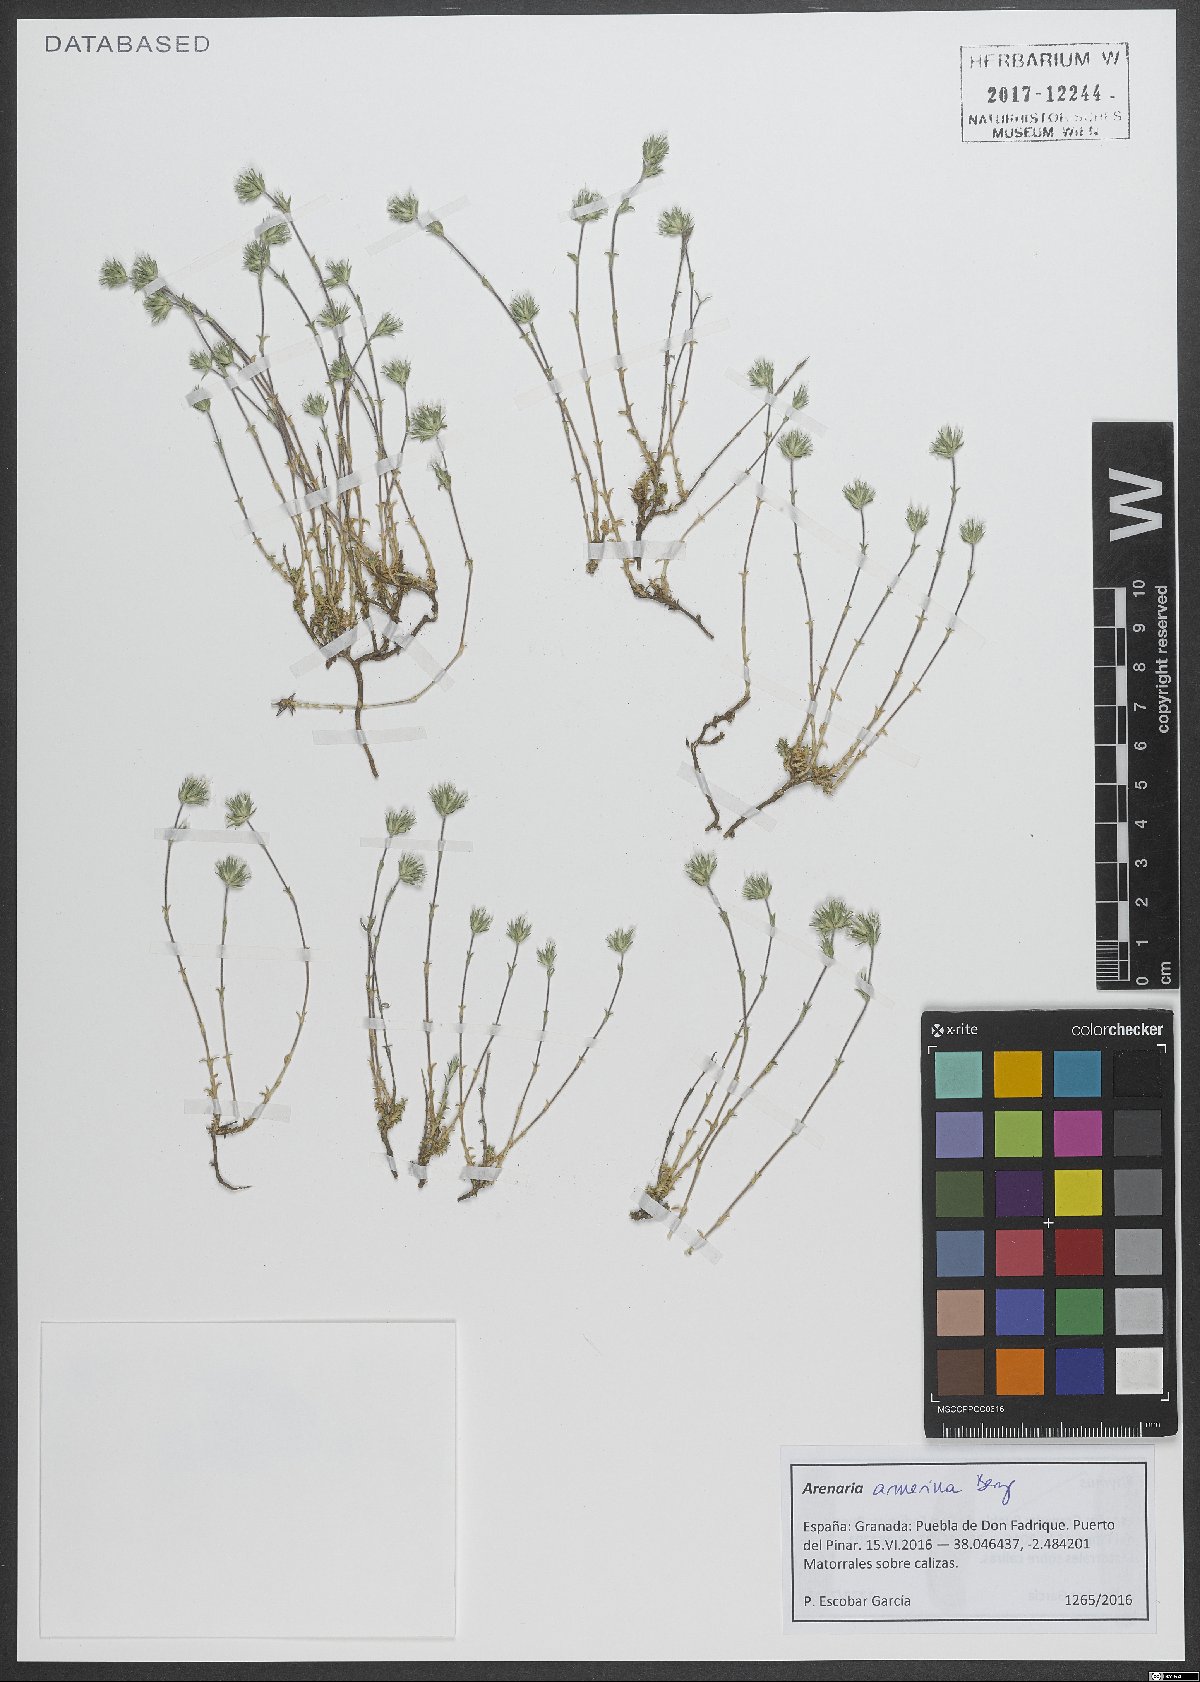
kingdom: Plantae
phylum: Tracheophyta
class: Magnoliopsida
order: Caryophyllales
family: Caryophyllaceae
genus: Arenaria
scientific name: Arenaria armerina
